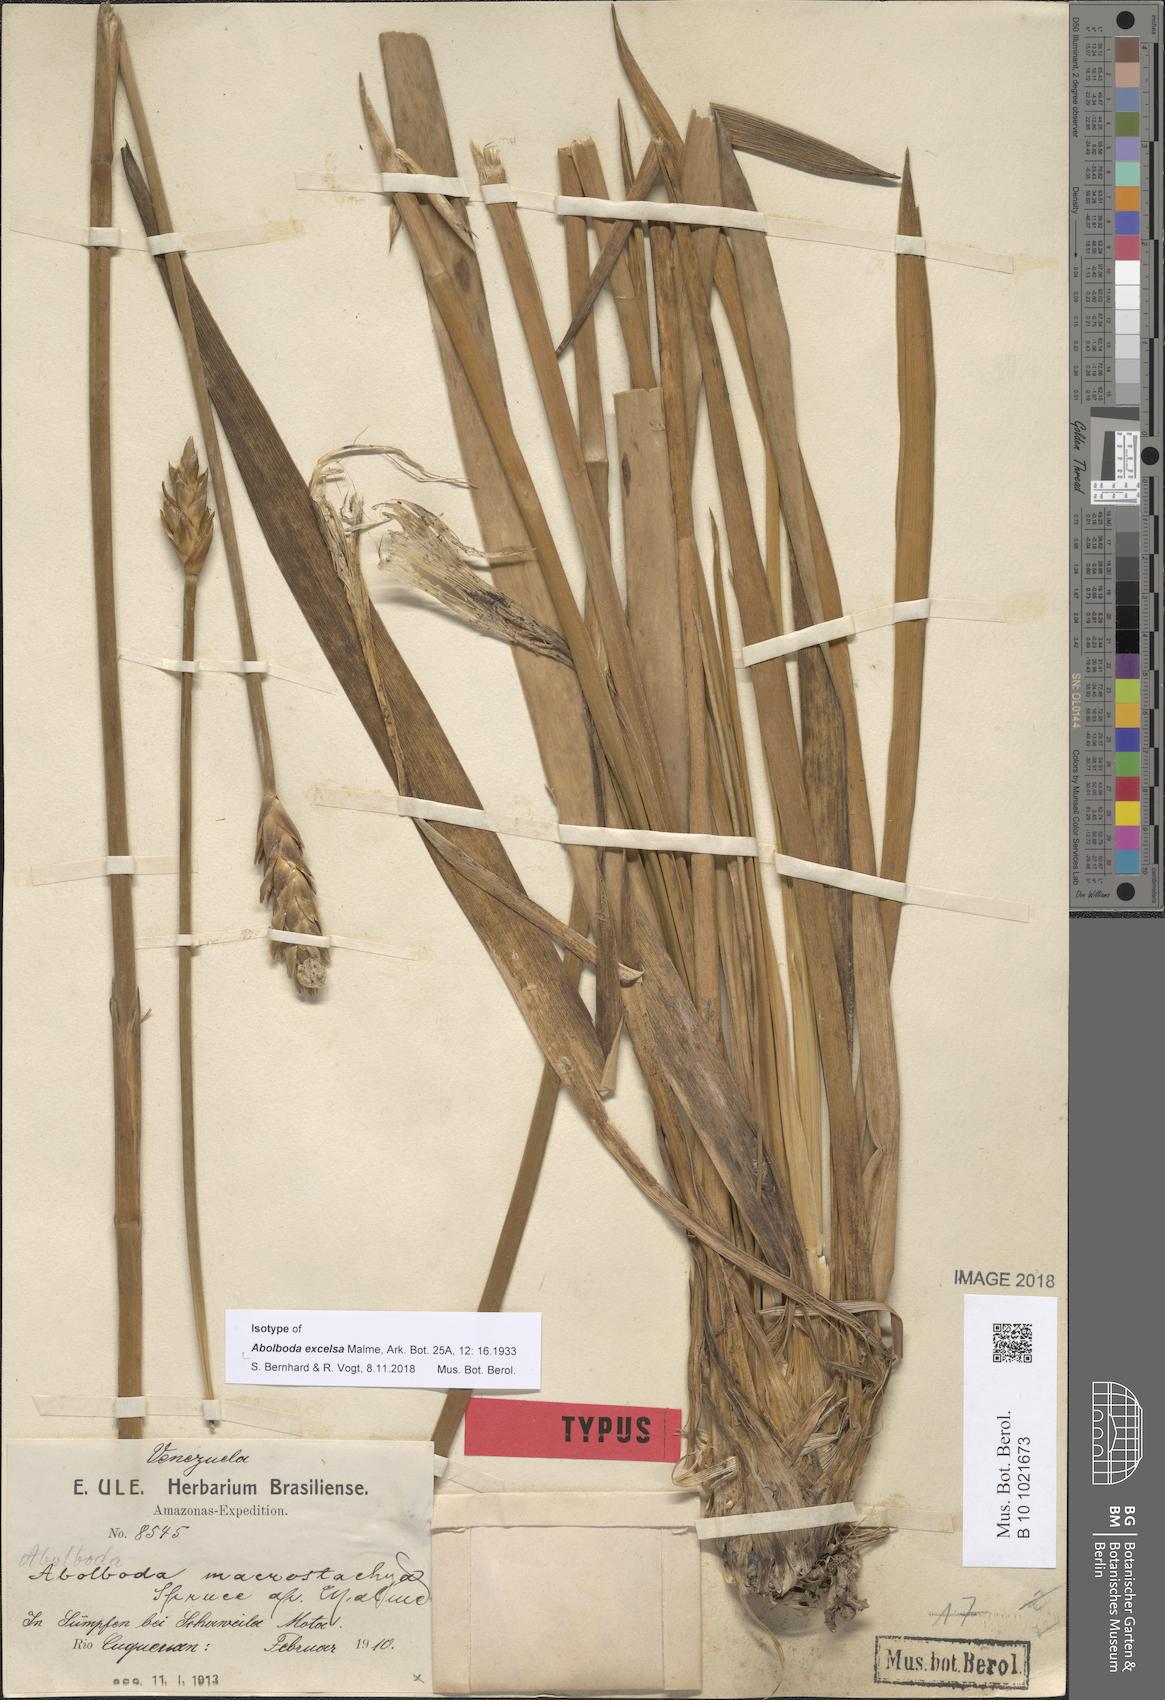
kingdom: Plantae
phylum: Tracheophyta
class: Liliopsida
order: Poales
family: Xyridaceae
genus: Abolboda
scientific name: Abolboda macrostachya
